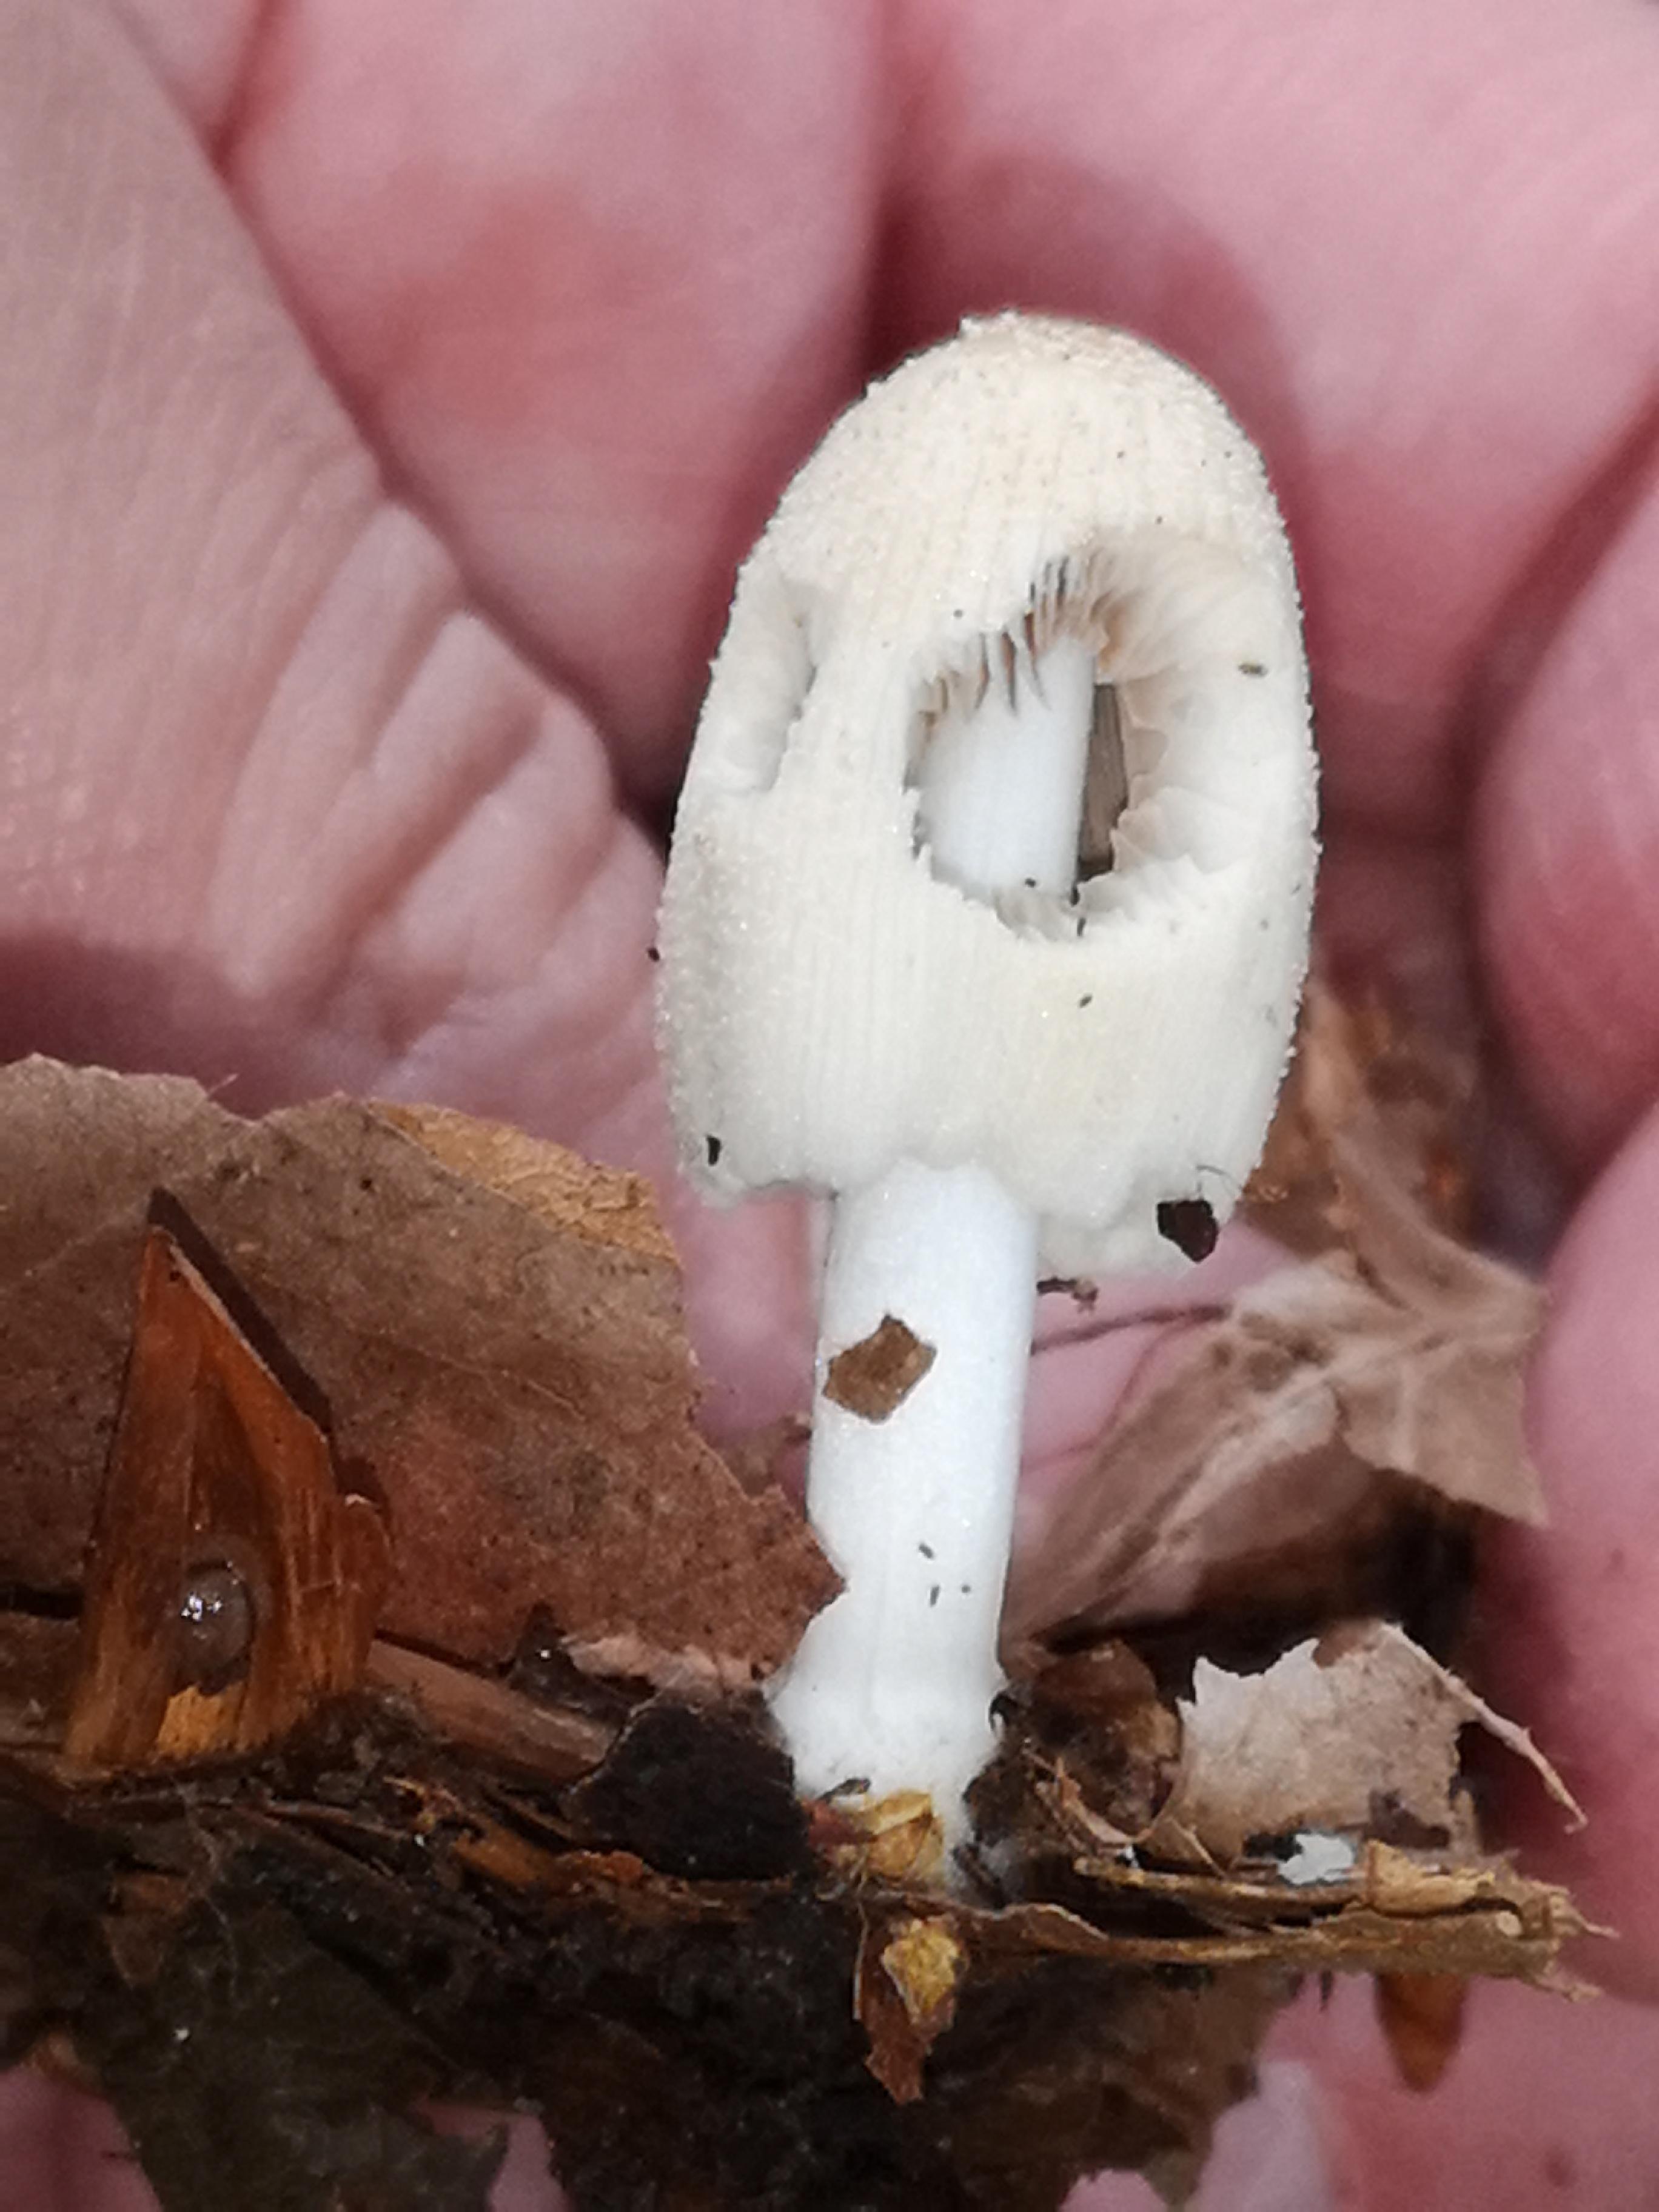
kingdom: Fungi
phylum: Basidiomycota
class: Agaricomycetes
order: Agaricales
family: Psathyrellaceae
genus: Coprinellus
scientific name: Coprinellus
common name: blækhat
